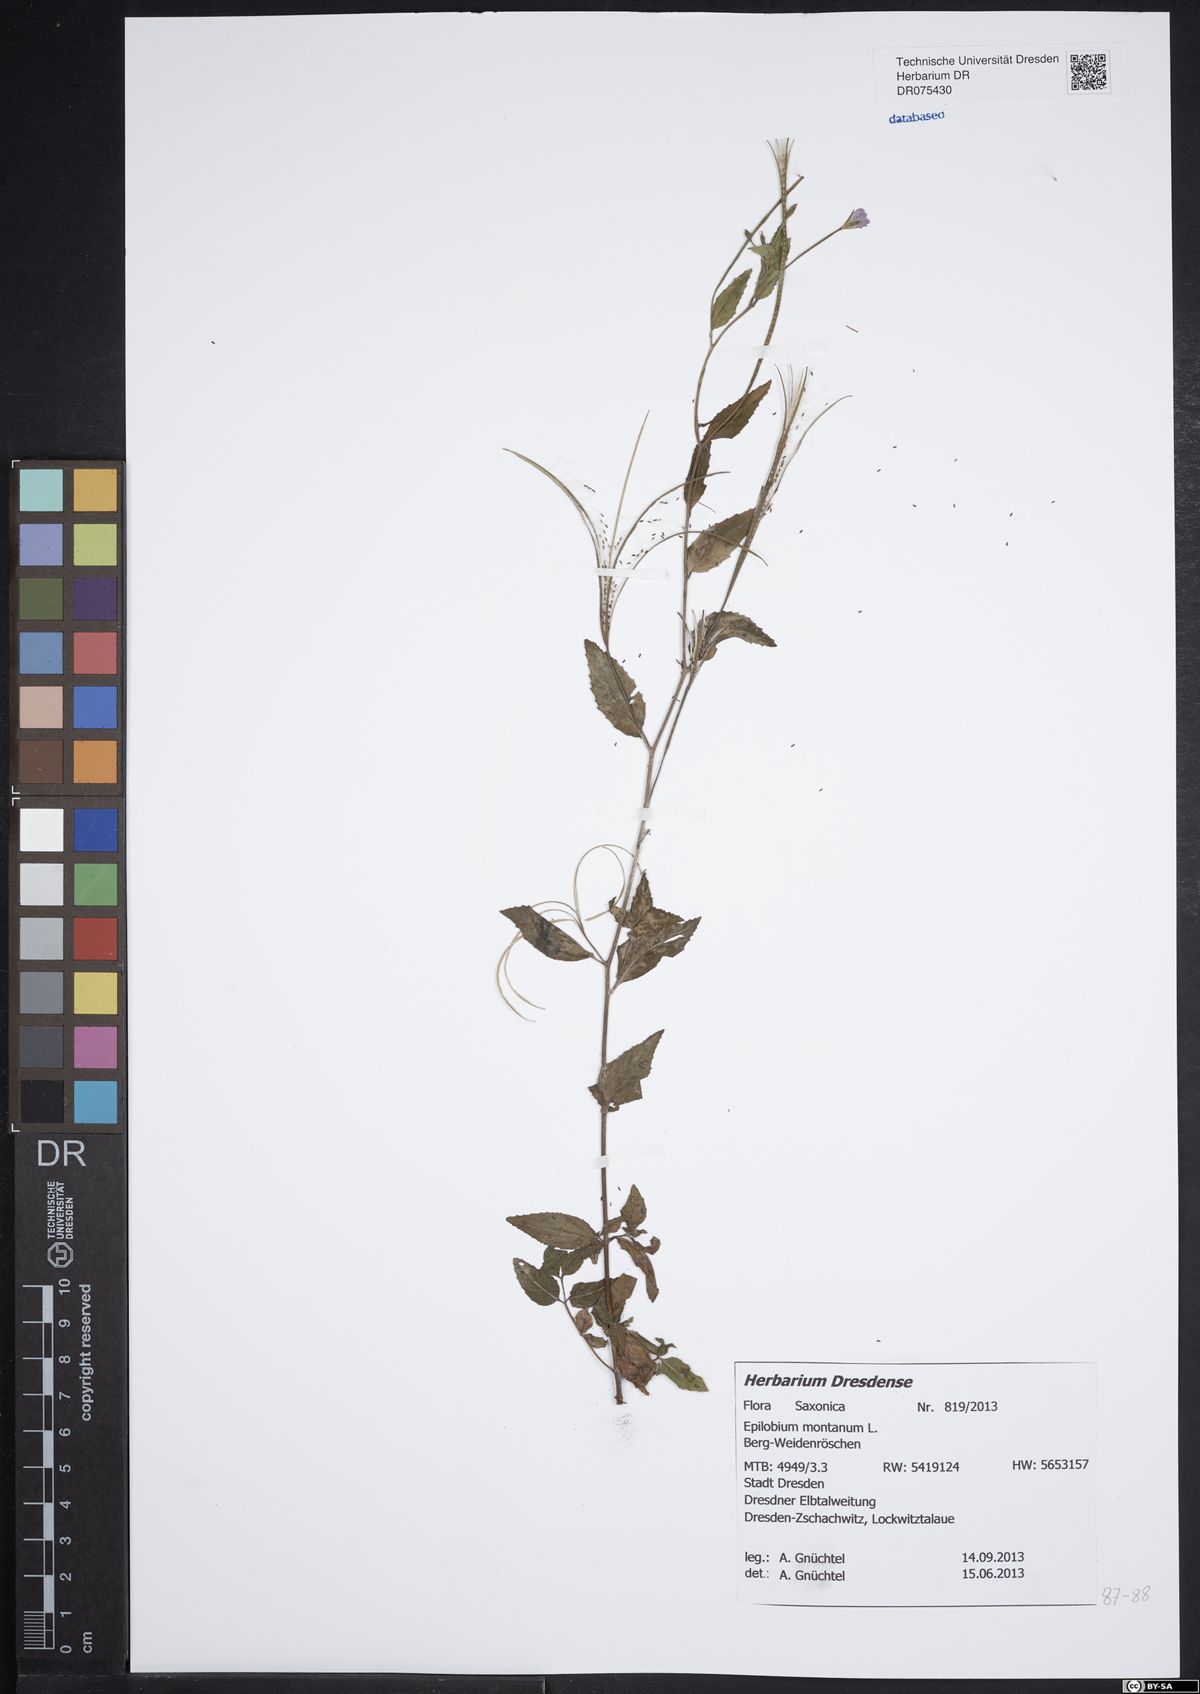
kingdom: Plantae
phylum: Tracheophyta
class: Magnoliopsida
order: Myrtales
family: Onagraceae
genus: Epilobium
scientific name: Epilobium montanum
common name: Broad-leaved willowherb
